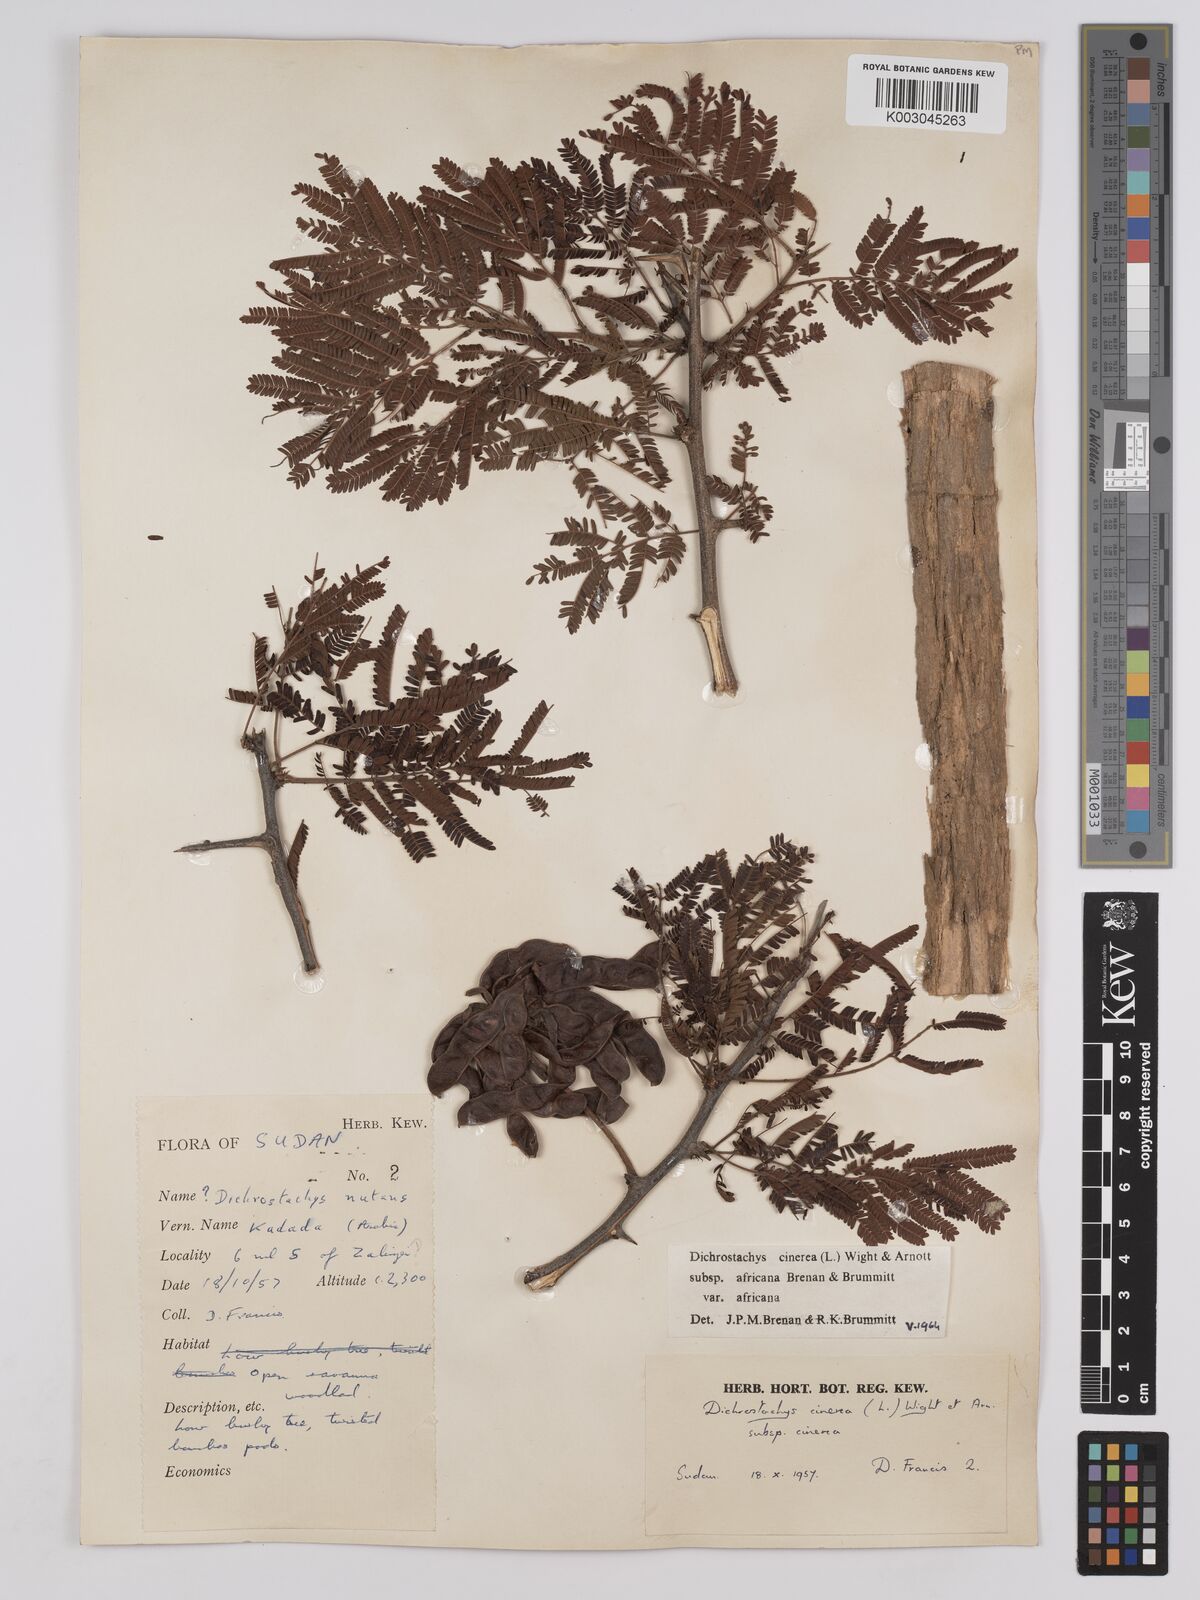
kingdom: Plantae
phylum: Tracheophyta
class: Magnoliopsida
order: Fabales
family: Fabaceae
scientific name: Fabaceae
